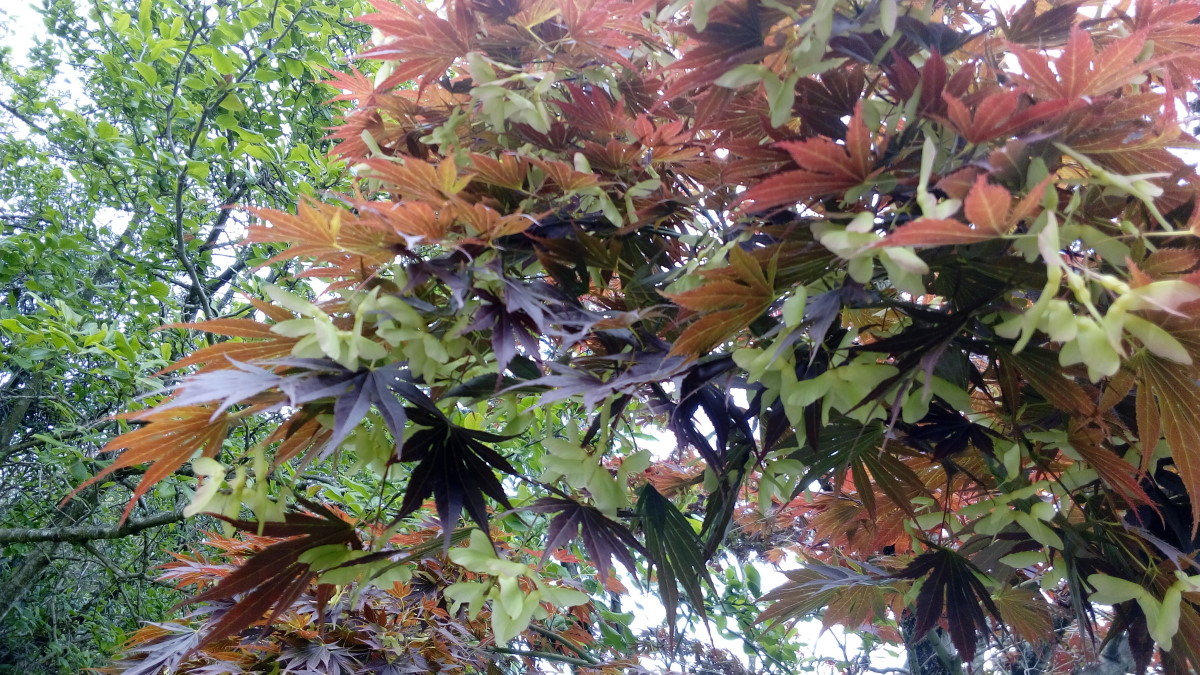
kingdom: Plantae
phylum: Tracheophyta
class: Magnoliopsida
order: Sapindales
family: Sapindaceae
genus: Acer
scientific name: Acer palmatum
